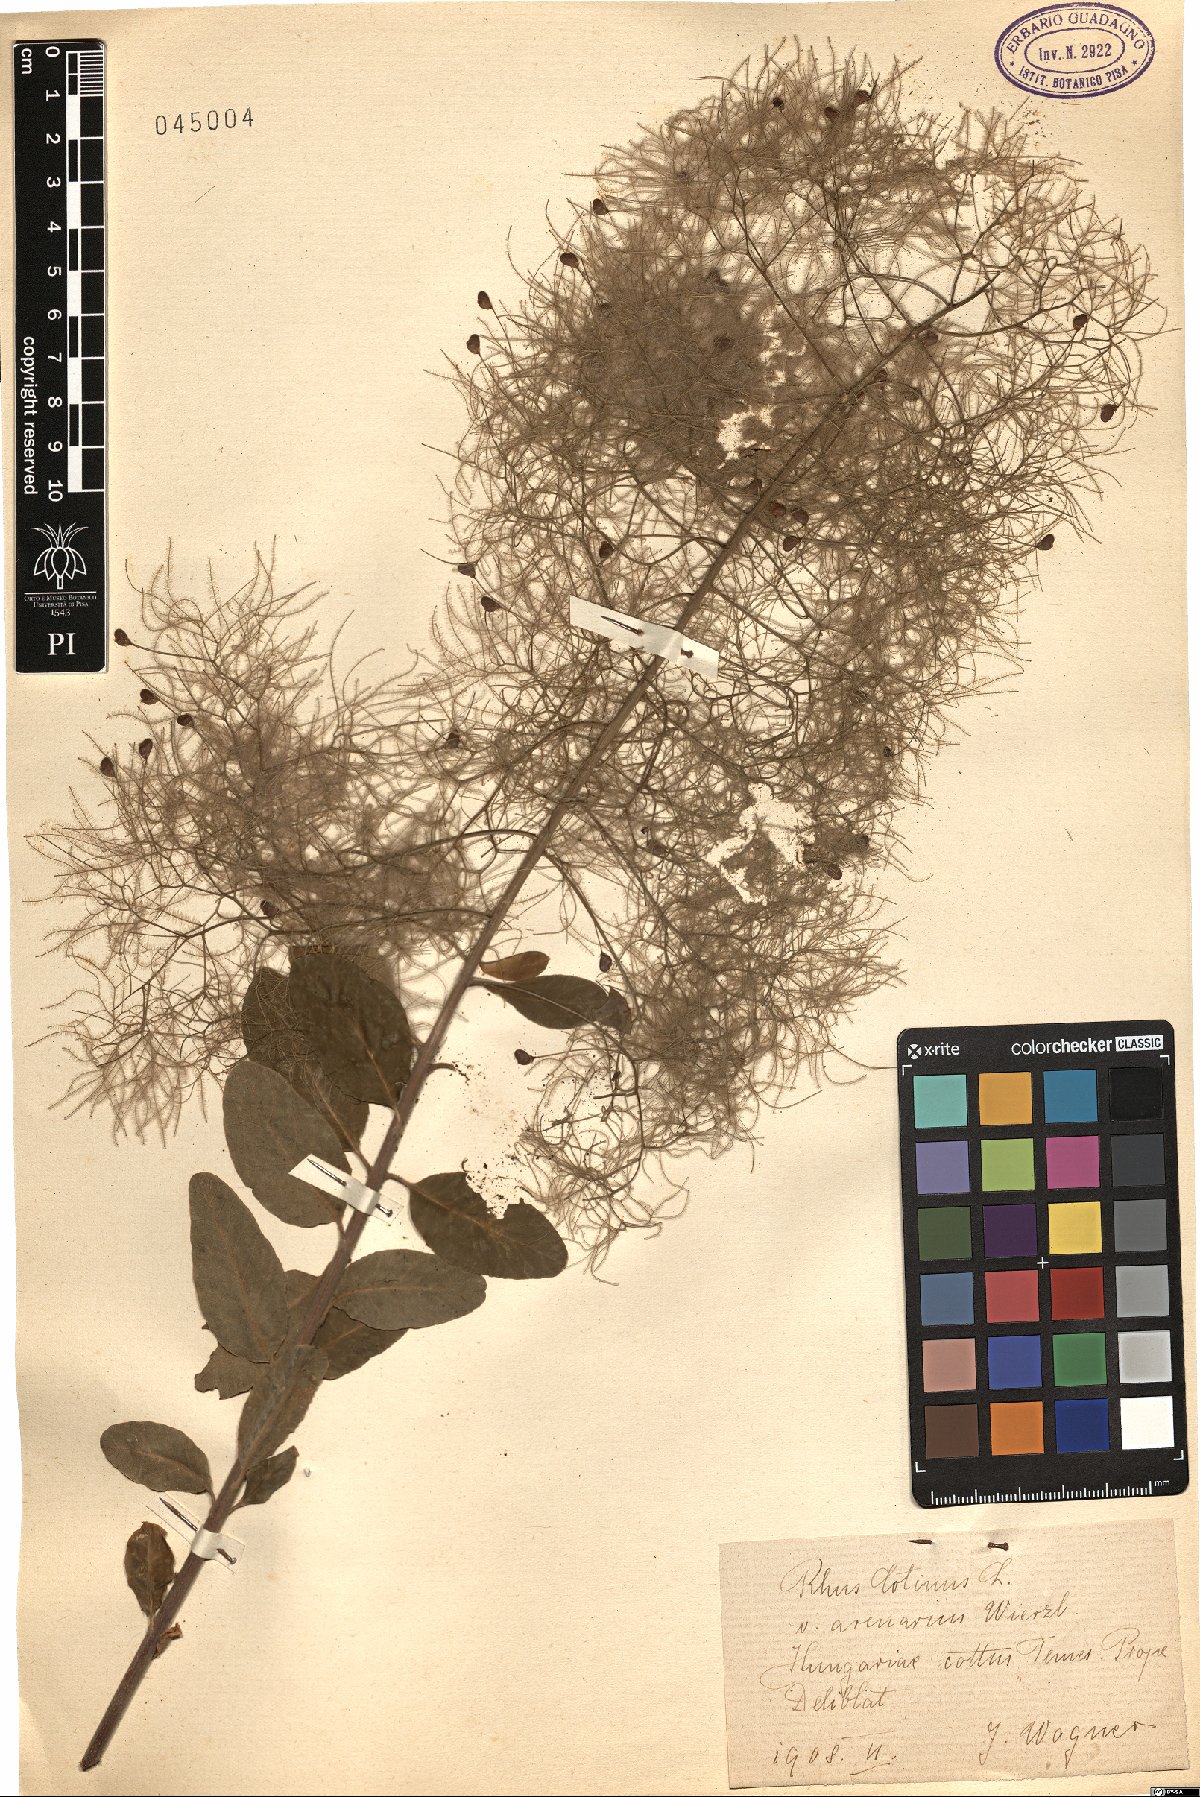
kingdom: Plantae
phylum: Tracheophyta
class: Magnoliopsida
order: Sapindales
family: Anacardiaceae
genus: Cotinus
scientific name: Cotinus
